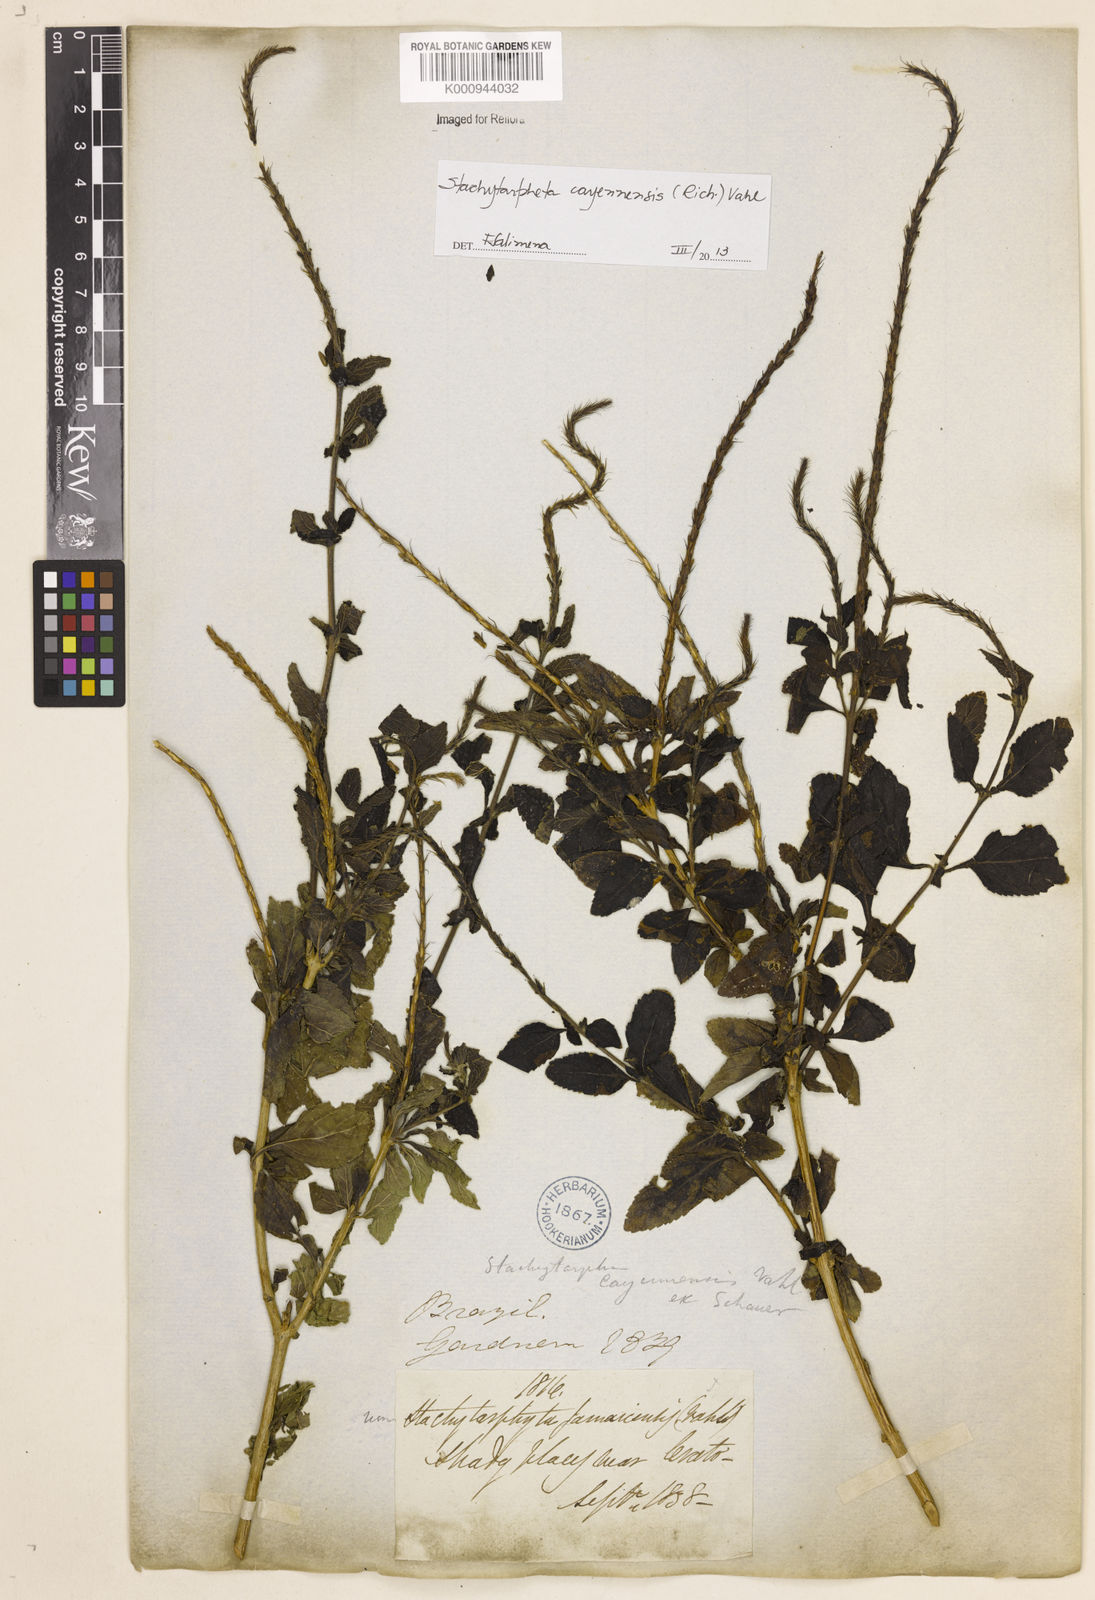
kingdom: Plantae
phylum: Tracheophyta
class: Magnoliopsida
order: Lamiales
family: Verbenaceae
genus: Aloysia
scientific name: Aloysia
